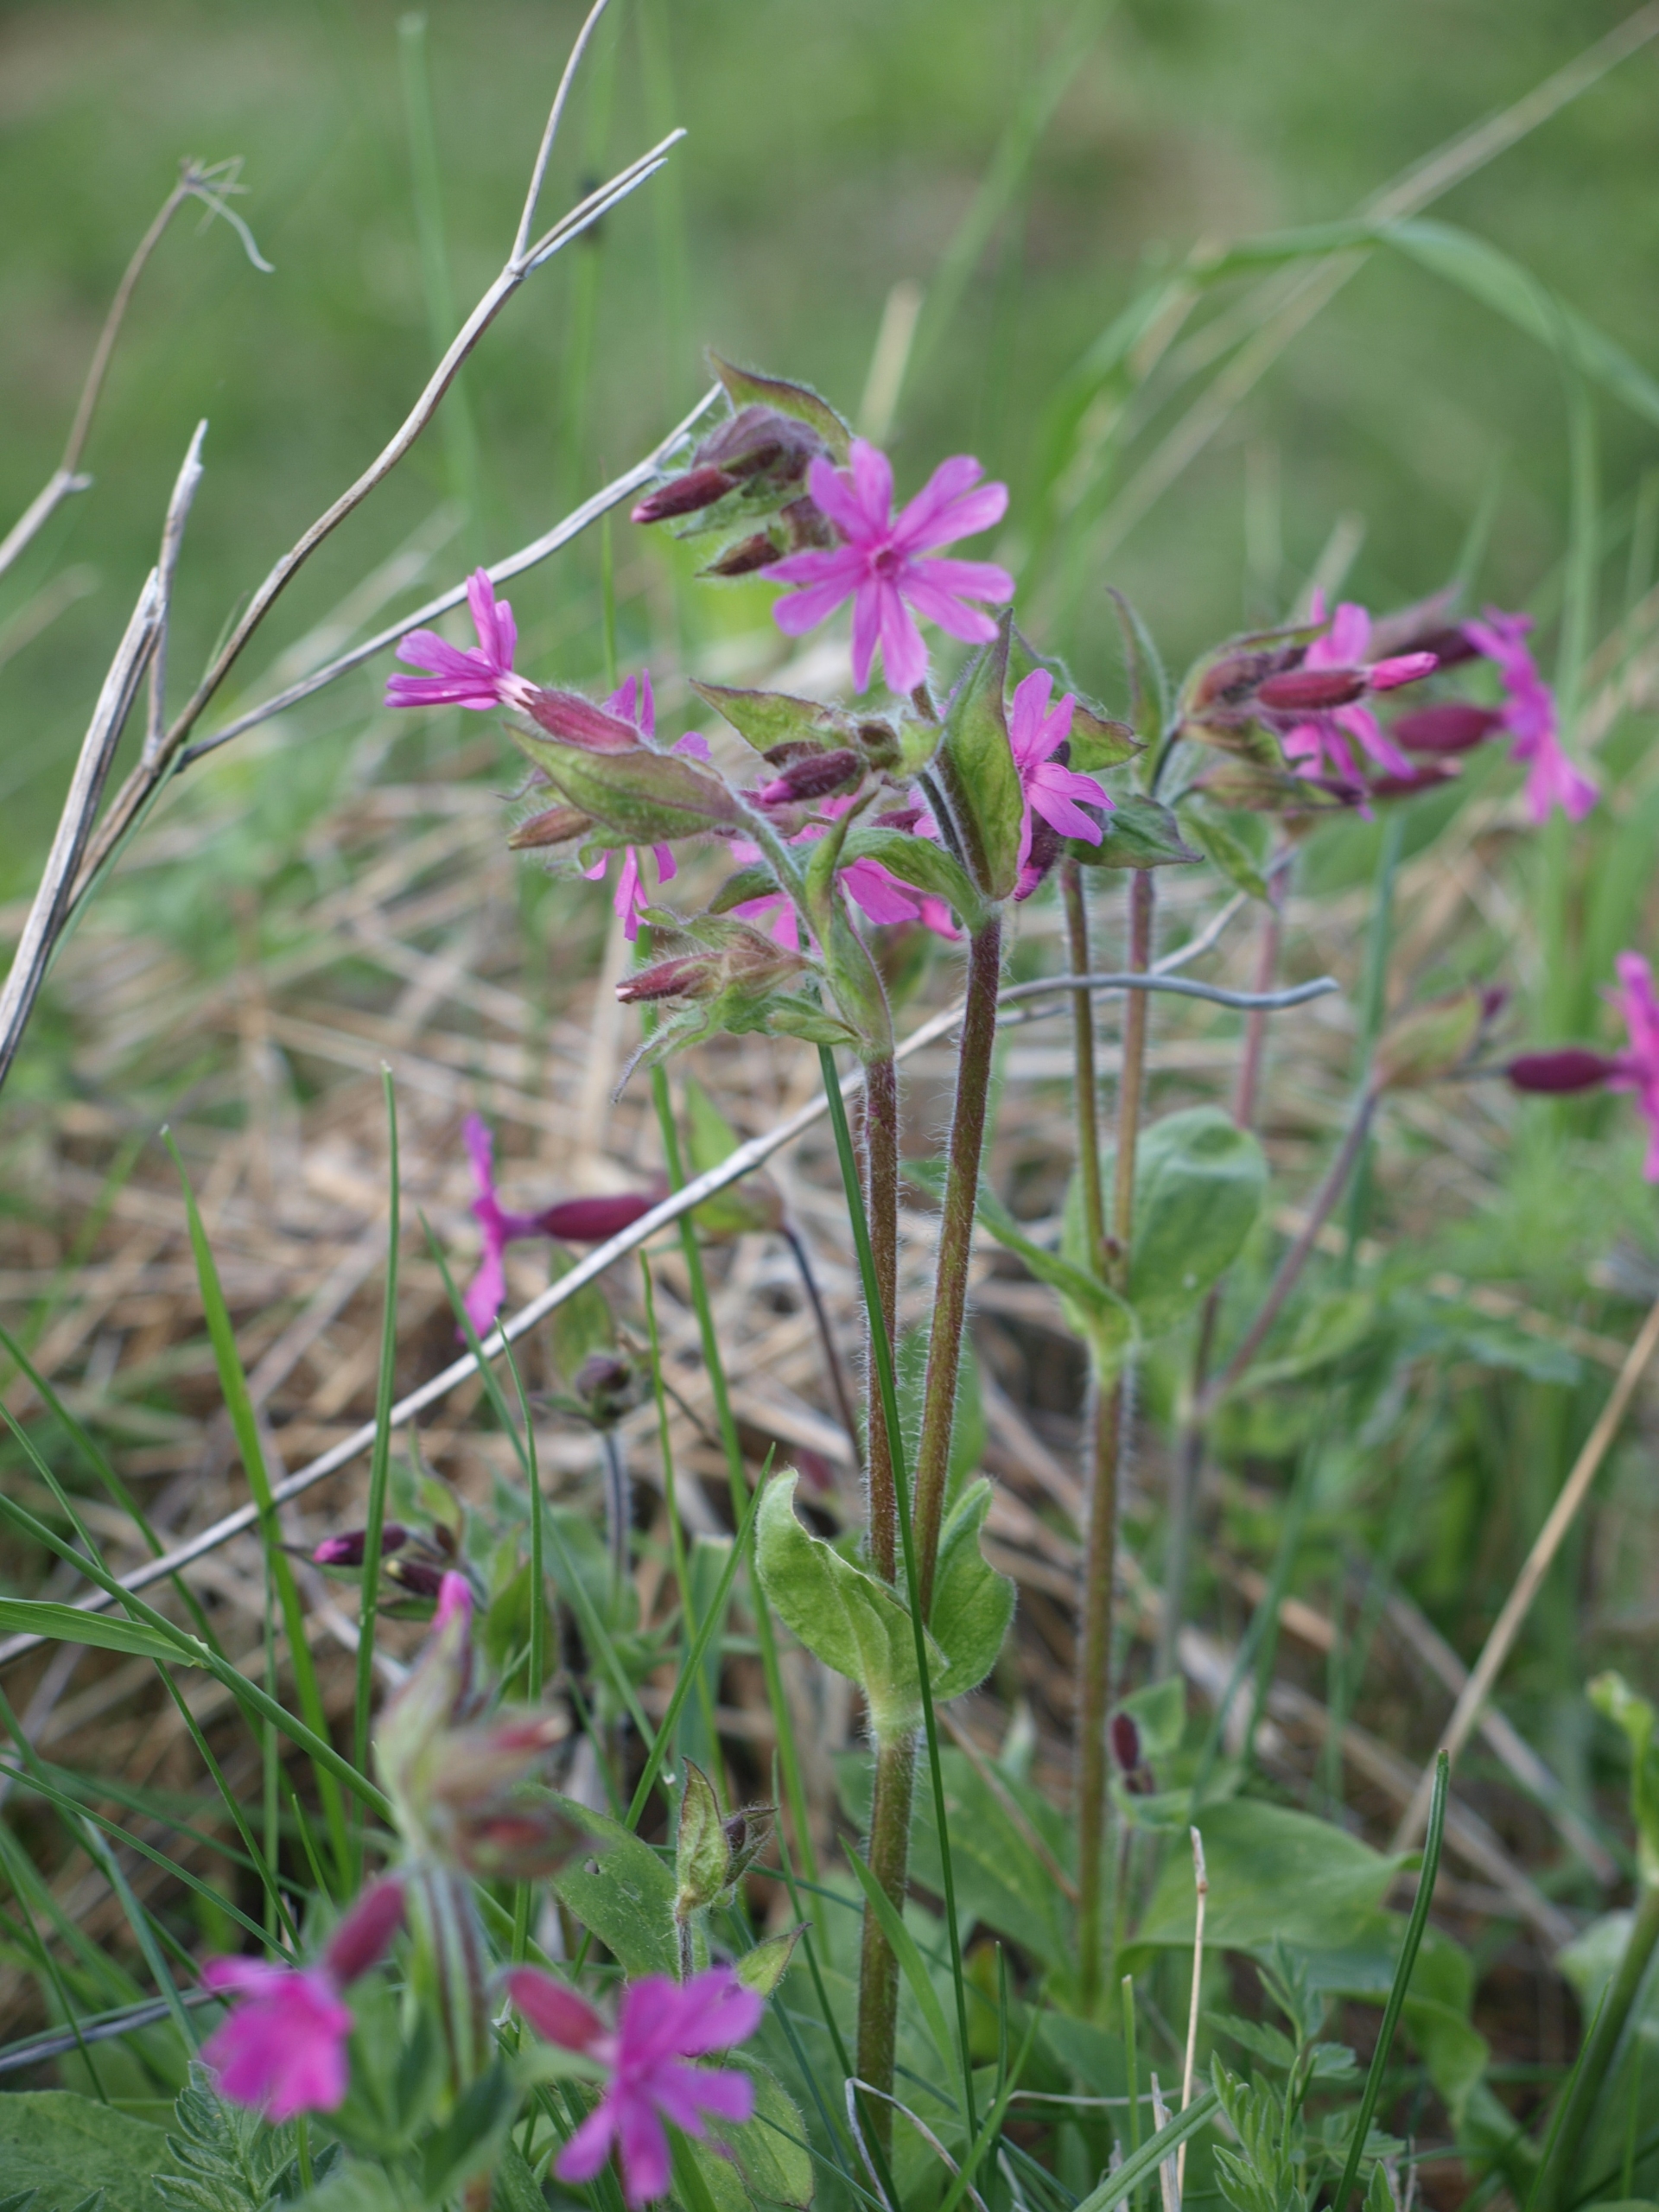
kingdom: Plantae
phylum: Tracheophyta
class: Magnoliopsida
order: Caryophyllales
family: Caryophyllaceae
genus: Silene
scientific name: Silene dioica
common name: Dagpragtstjerne
